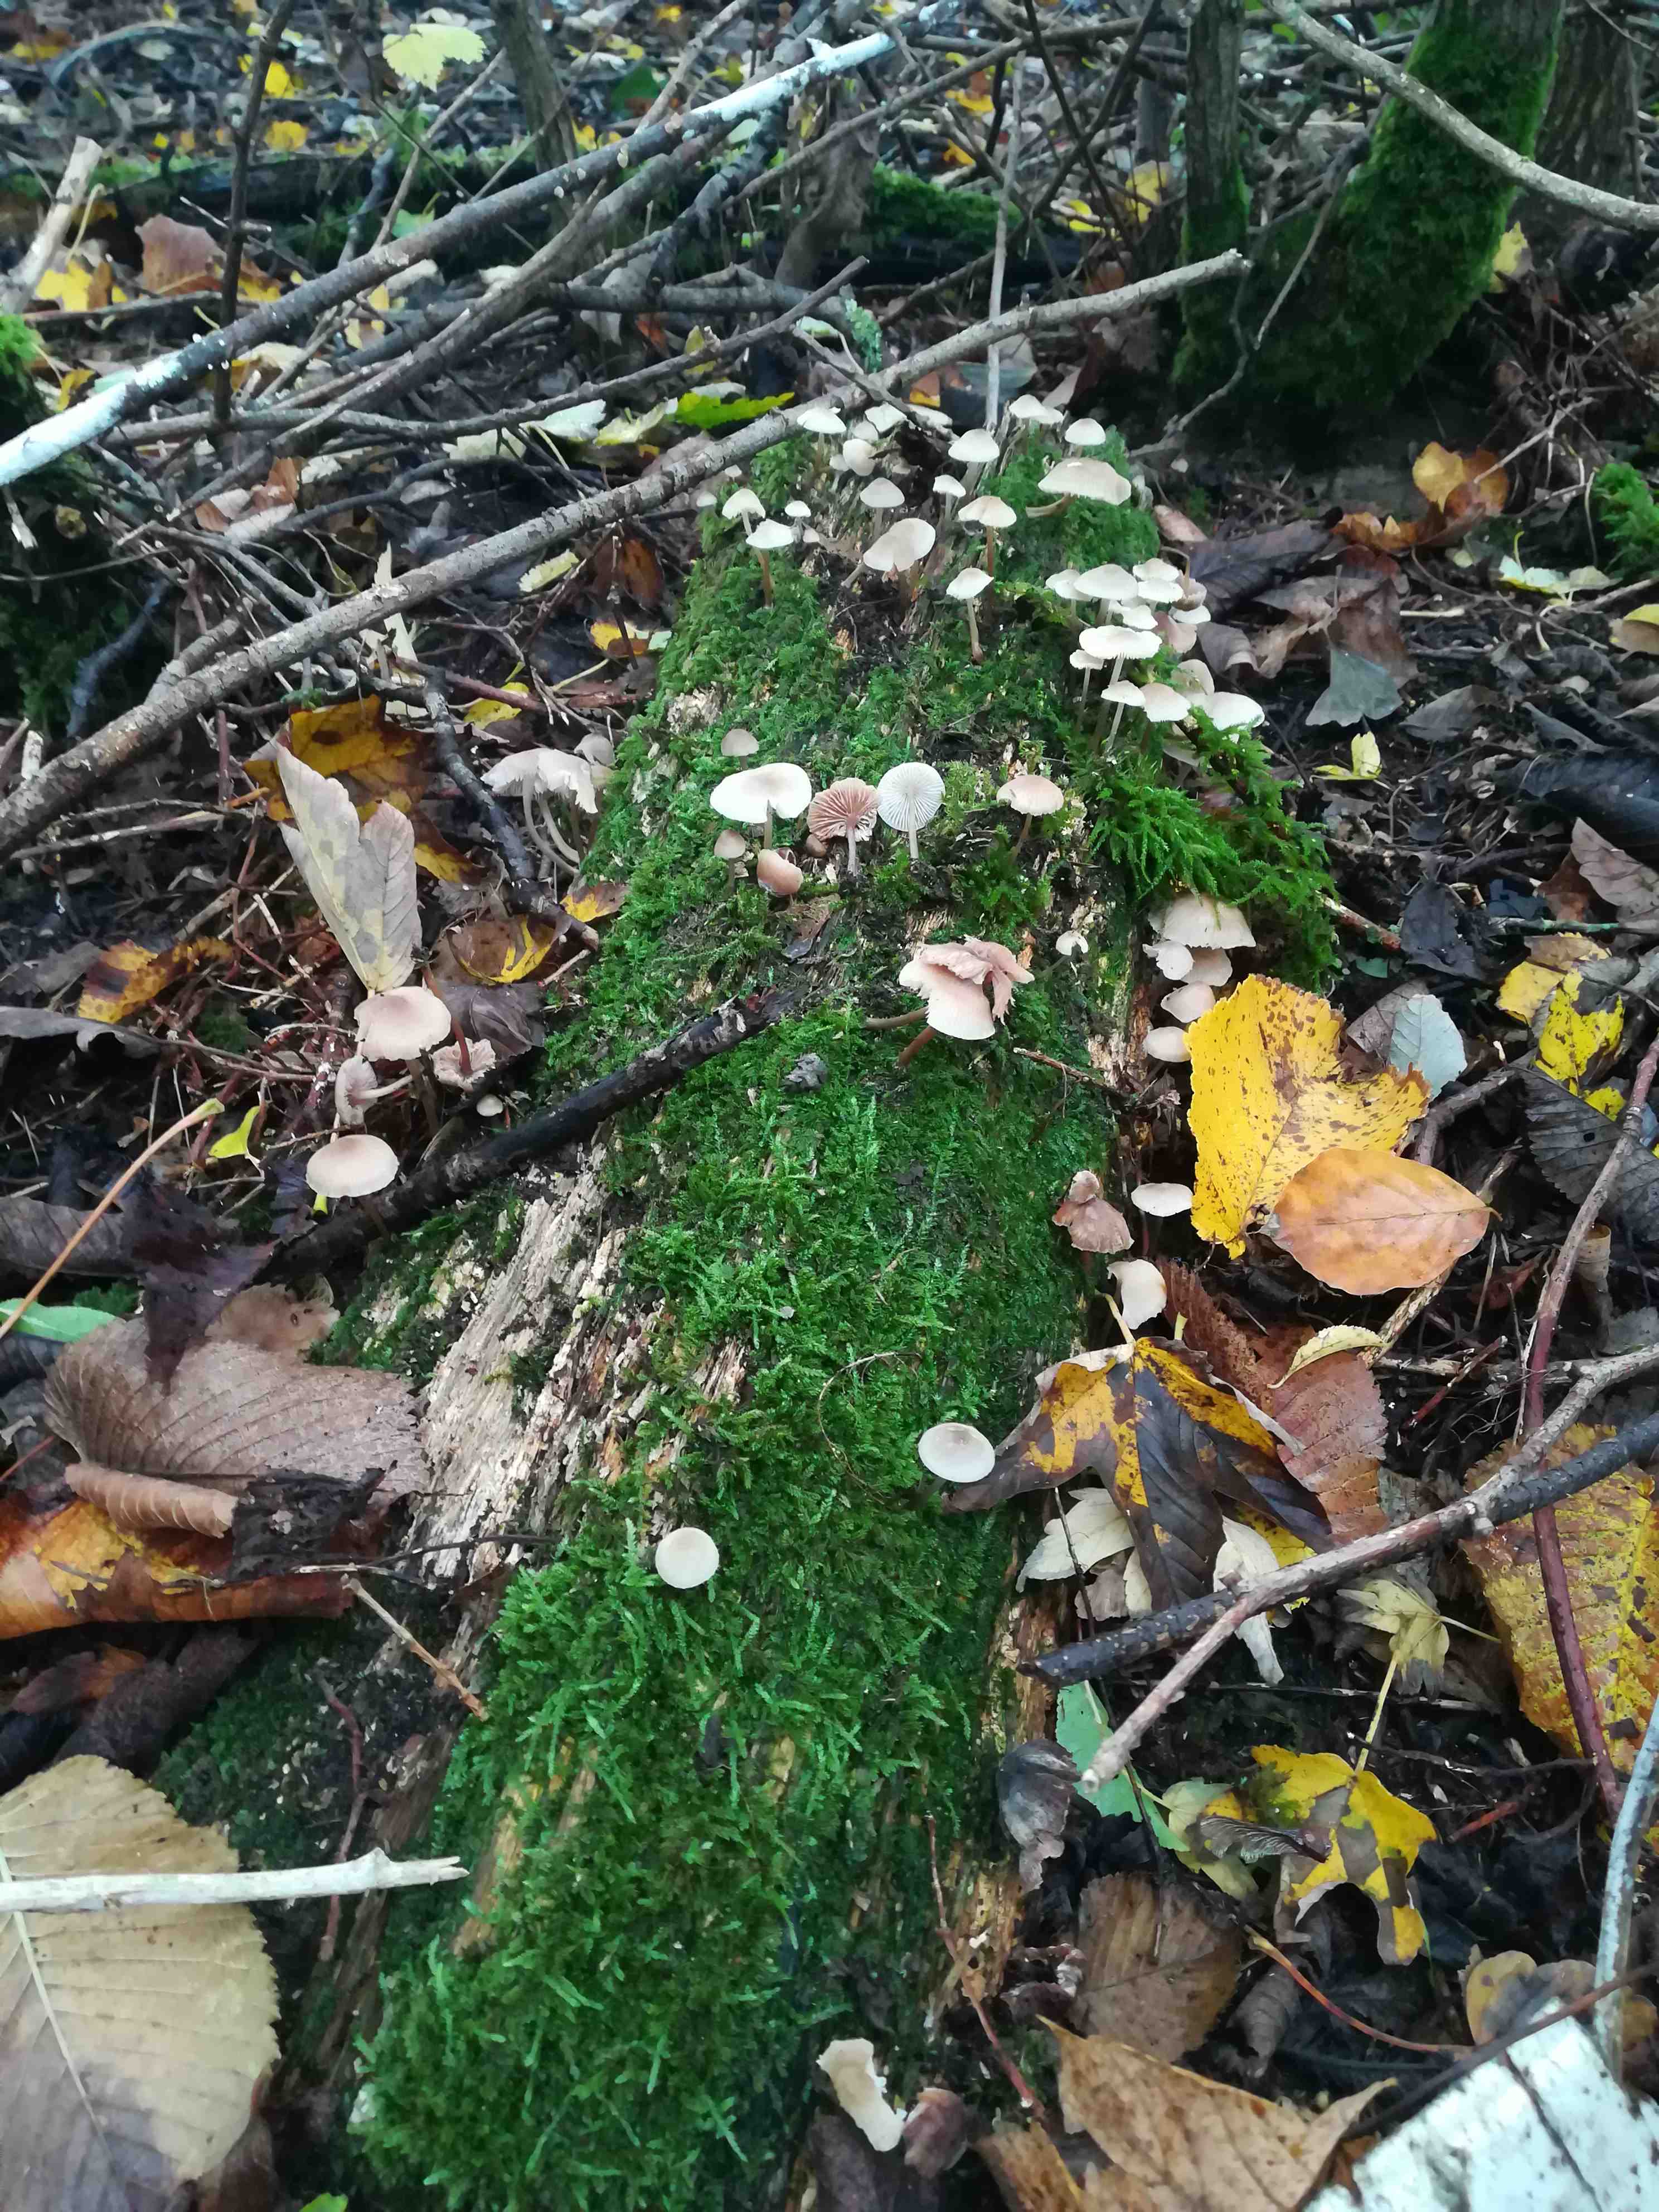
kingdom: Fungi
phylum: Basidiomycota
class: Agaricomycetes
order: Agaricales
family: Mycenaceae
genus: Mycena
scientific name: Mycena galericulata
